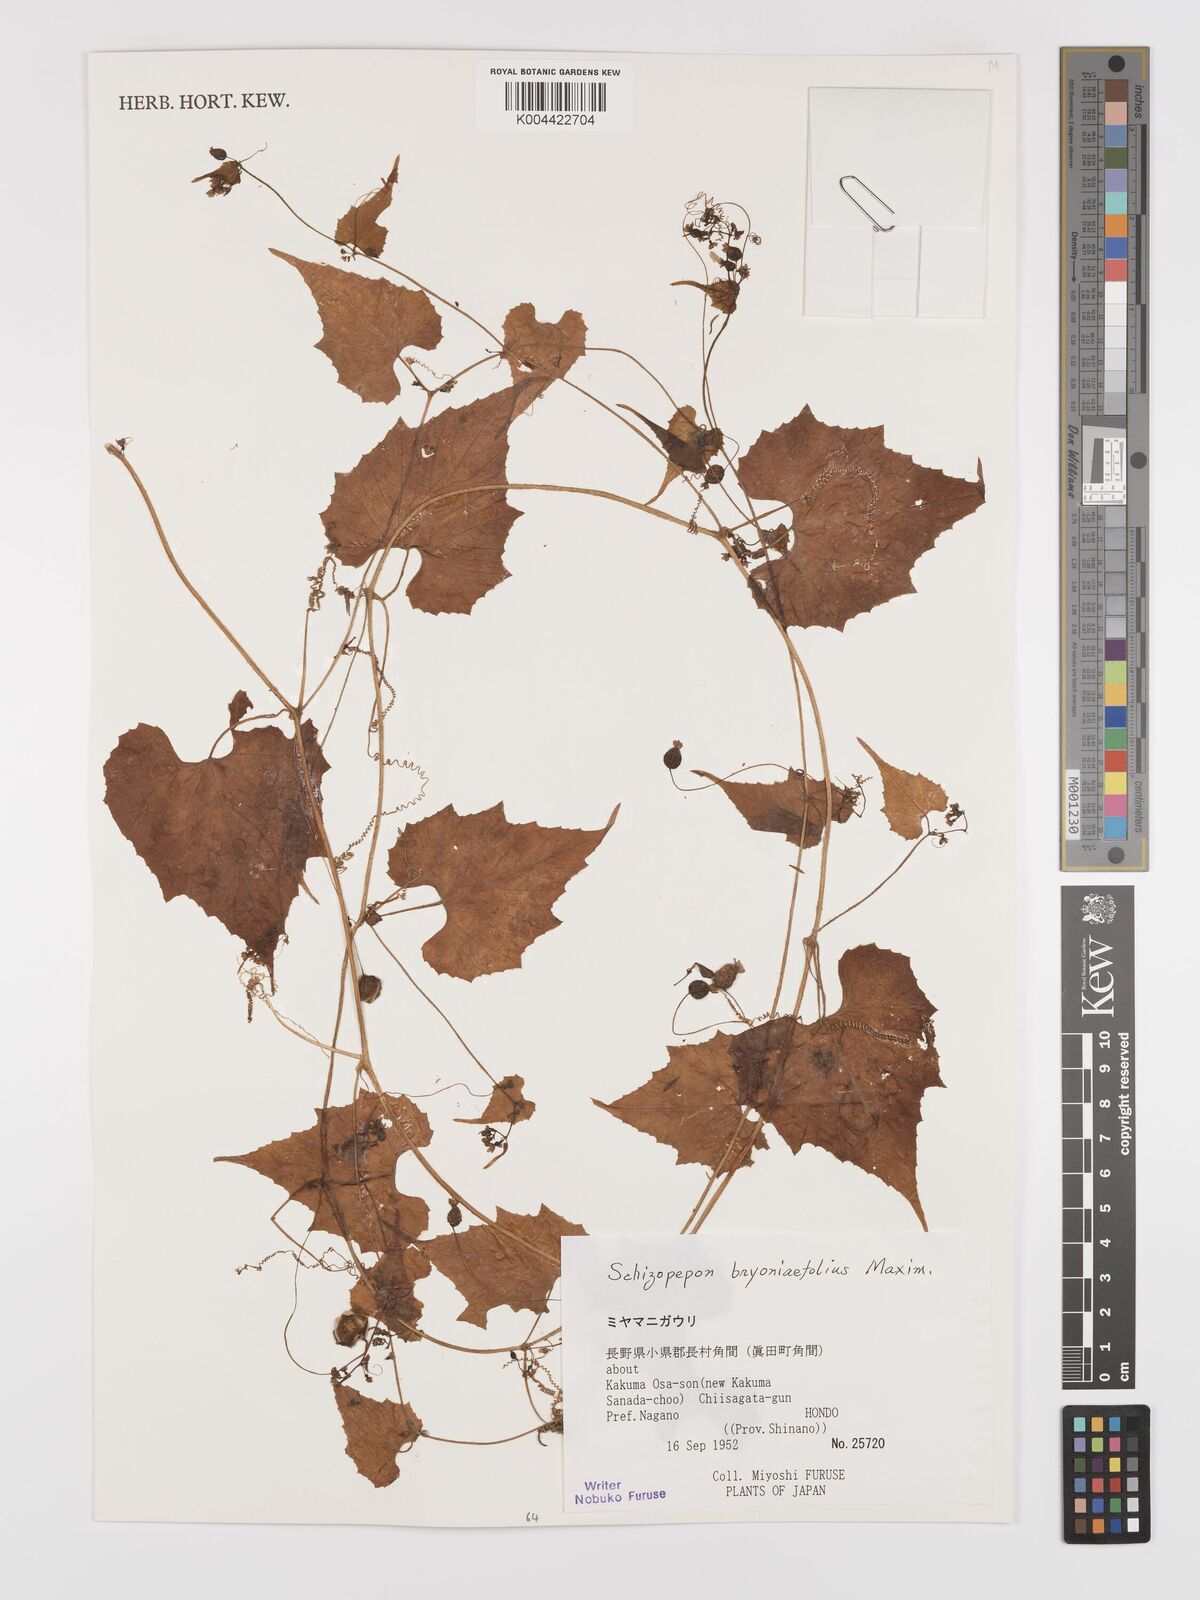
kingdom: Plantae
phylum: Tracheophyta
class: Magnoliopsida
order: Cucurbitales
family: Cucurbitaceae
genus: Schizopepon
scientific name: Schizopepon bryoniifolius
